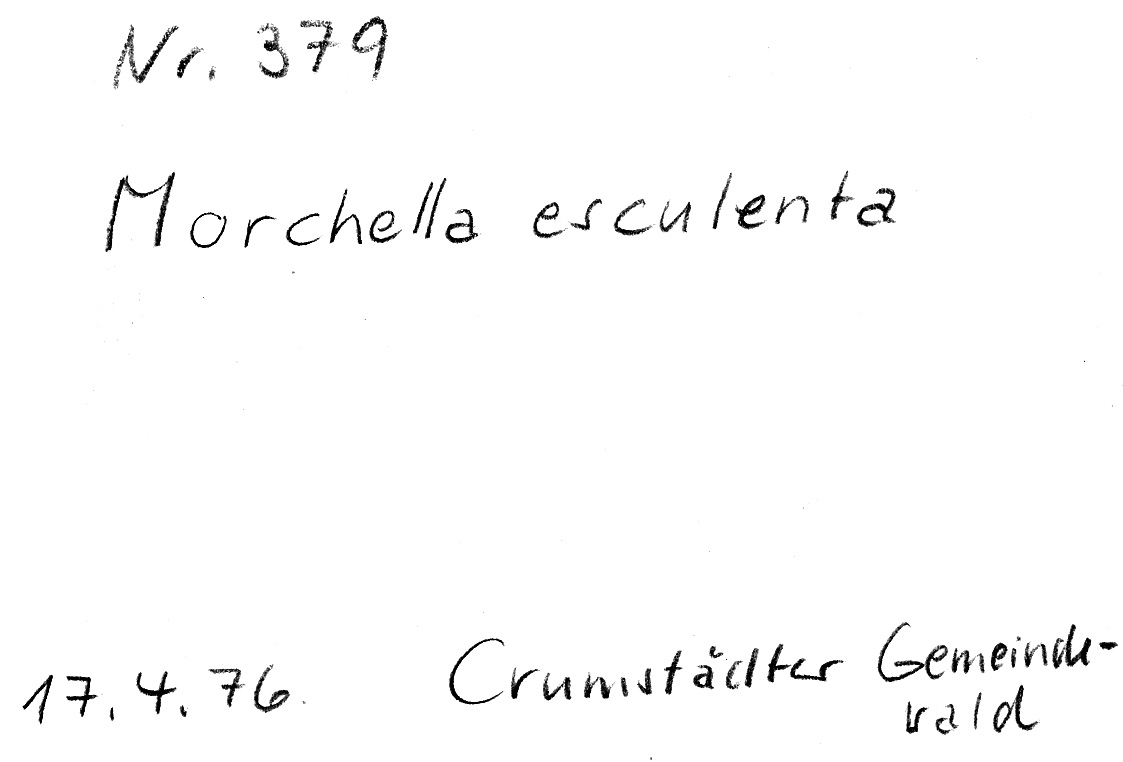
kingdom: Fungi
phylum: Ascomycota
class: Pezizomycetes
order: Pezizales
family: Morchellaceae
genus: Morchella
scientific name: Morchella esculenta
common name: Morel
